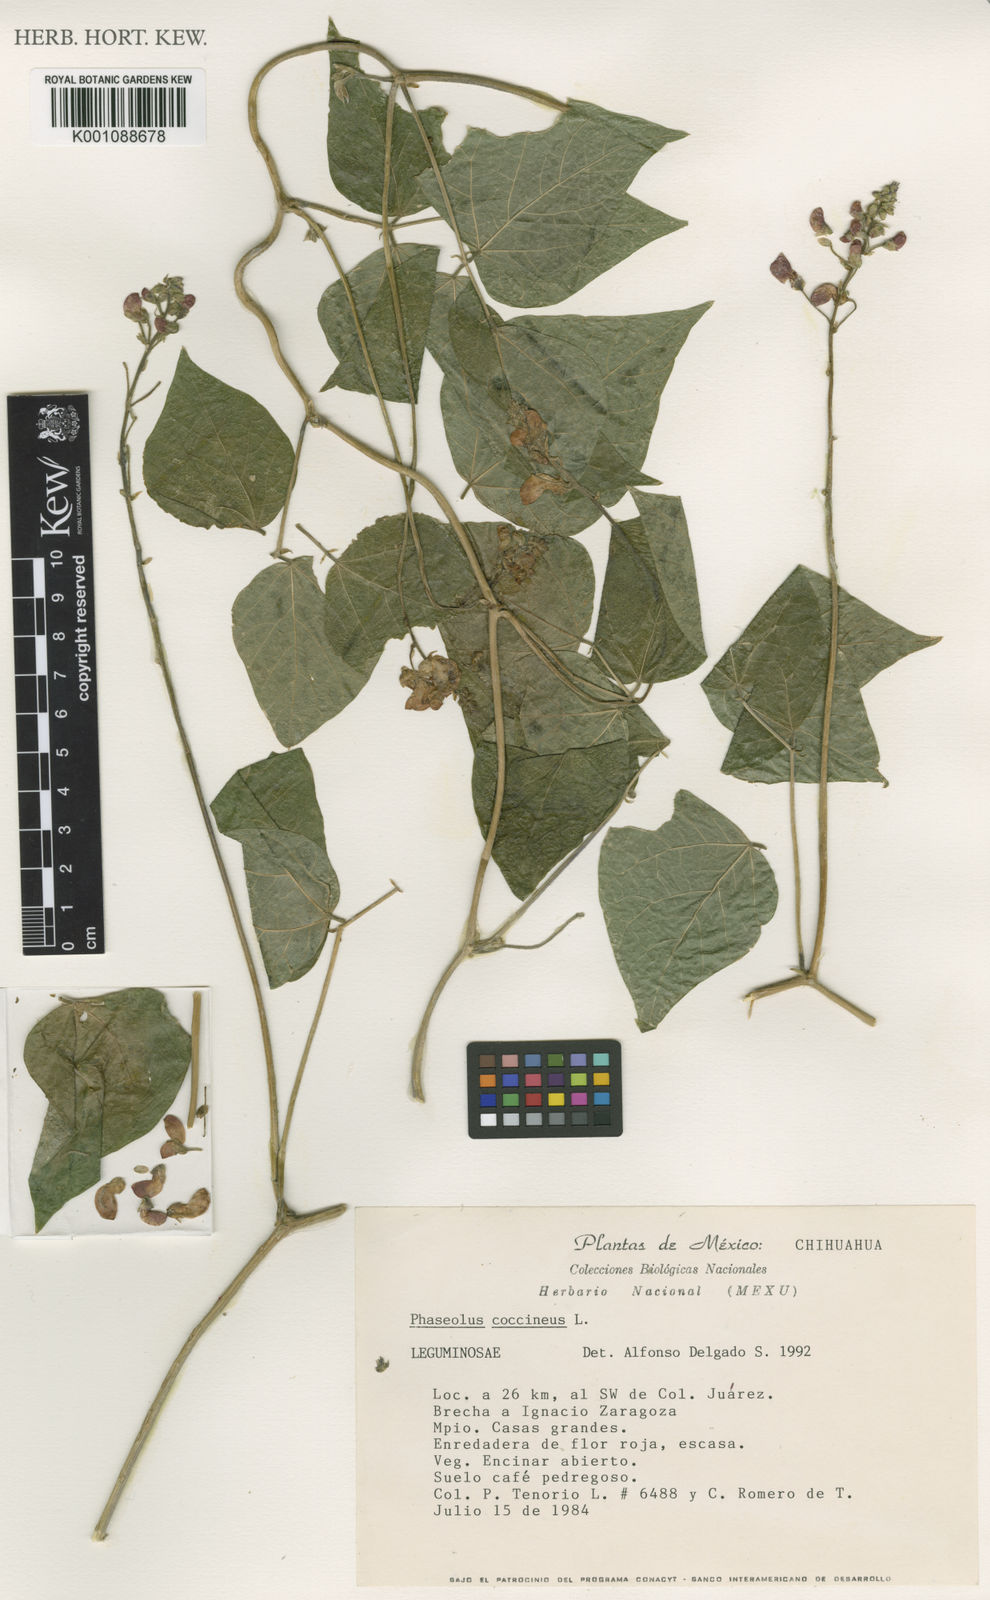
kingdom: Plantae
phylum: Tracheophyta
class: Magnoliopsida
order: Fabales
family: Fabaceae
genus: Phaseolus
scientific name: Phaseolus coccineus
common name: Runner bean
